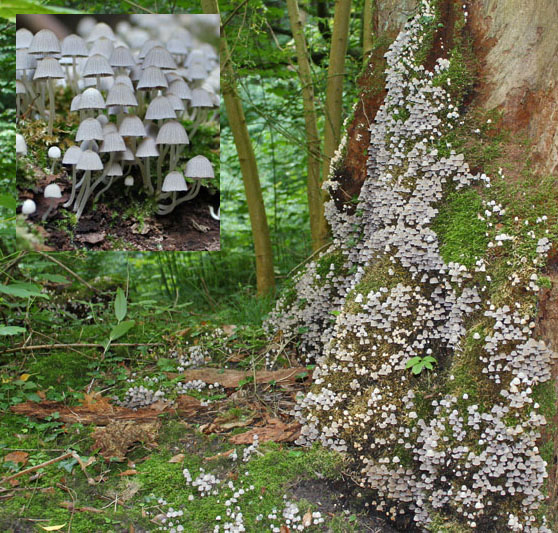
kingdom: Fungi
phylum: Basidiomycota
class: Agaricomycetes
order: Agaricales
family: Psathyrellaceae
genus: Coprinellus
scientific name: Coprinellus disseminatus
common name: bredsået blækhat
